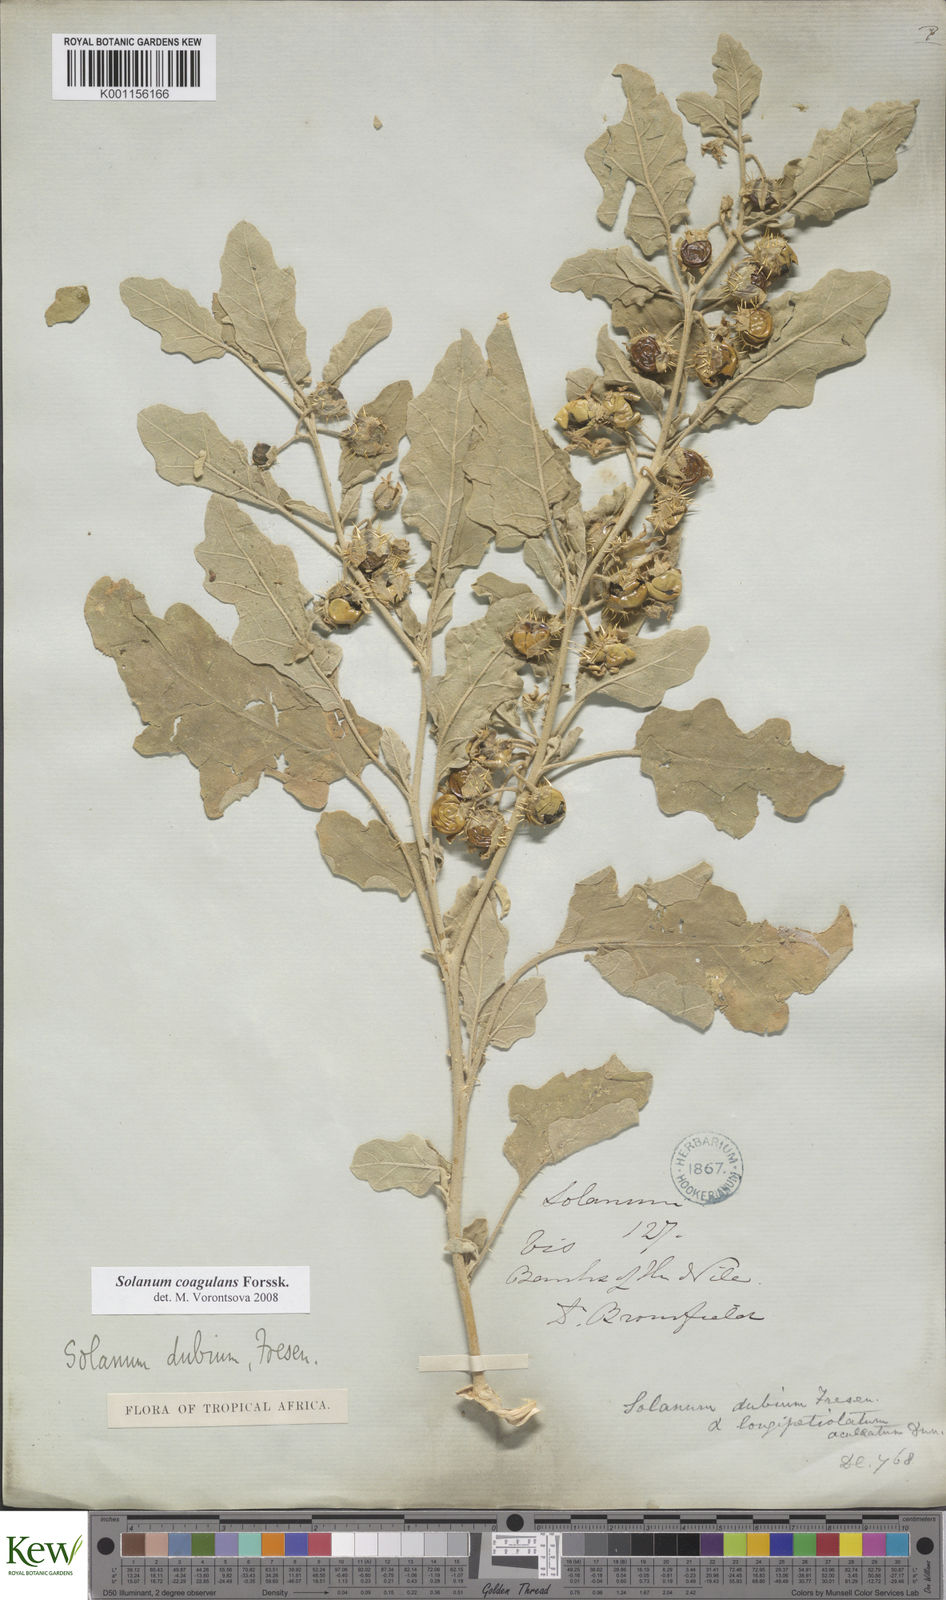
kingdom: Plantae
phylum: Tracheophyta
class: Magnoliopsida
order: Solanales
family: Solanaceae
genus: Solanum
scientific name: Solanum coagulans
